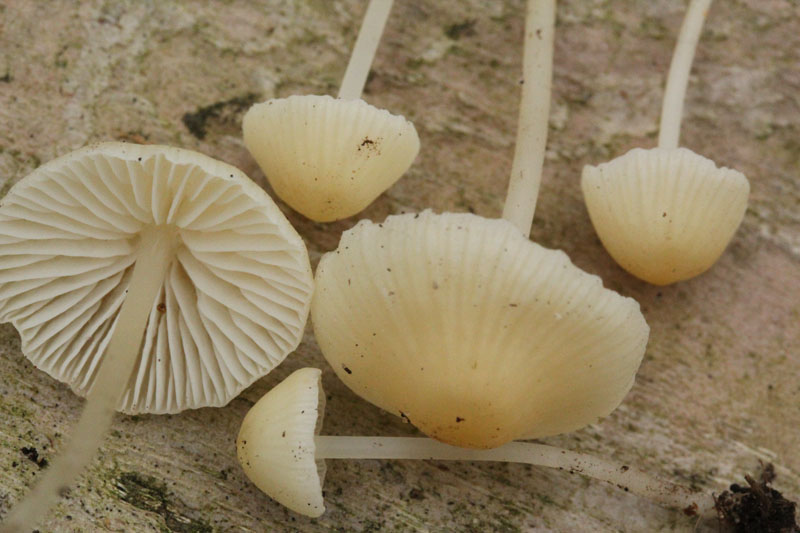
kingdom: Fungi
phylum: Basidiomycota
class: Agaricomycetes
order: Agaricales
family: Mycenaceae
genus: Atheniella
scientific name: Atheniella flavoalba
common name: gulhvid huesvamp
